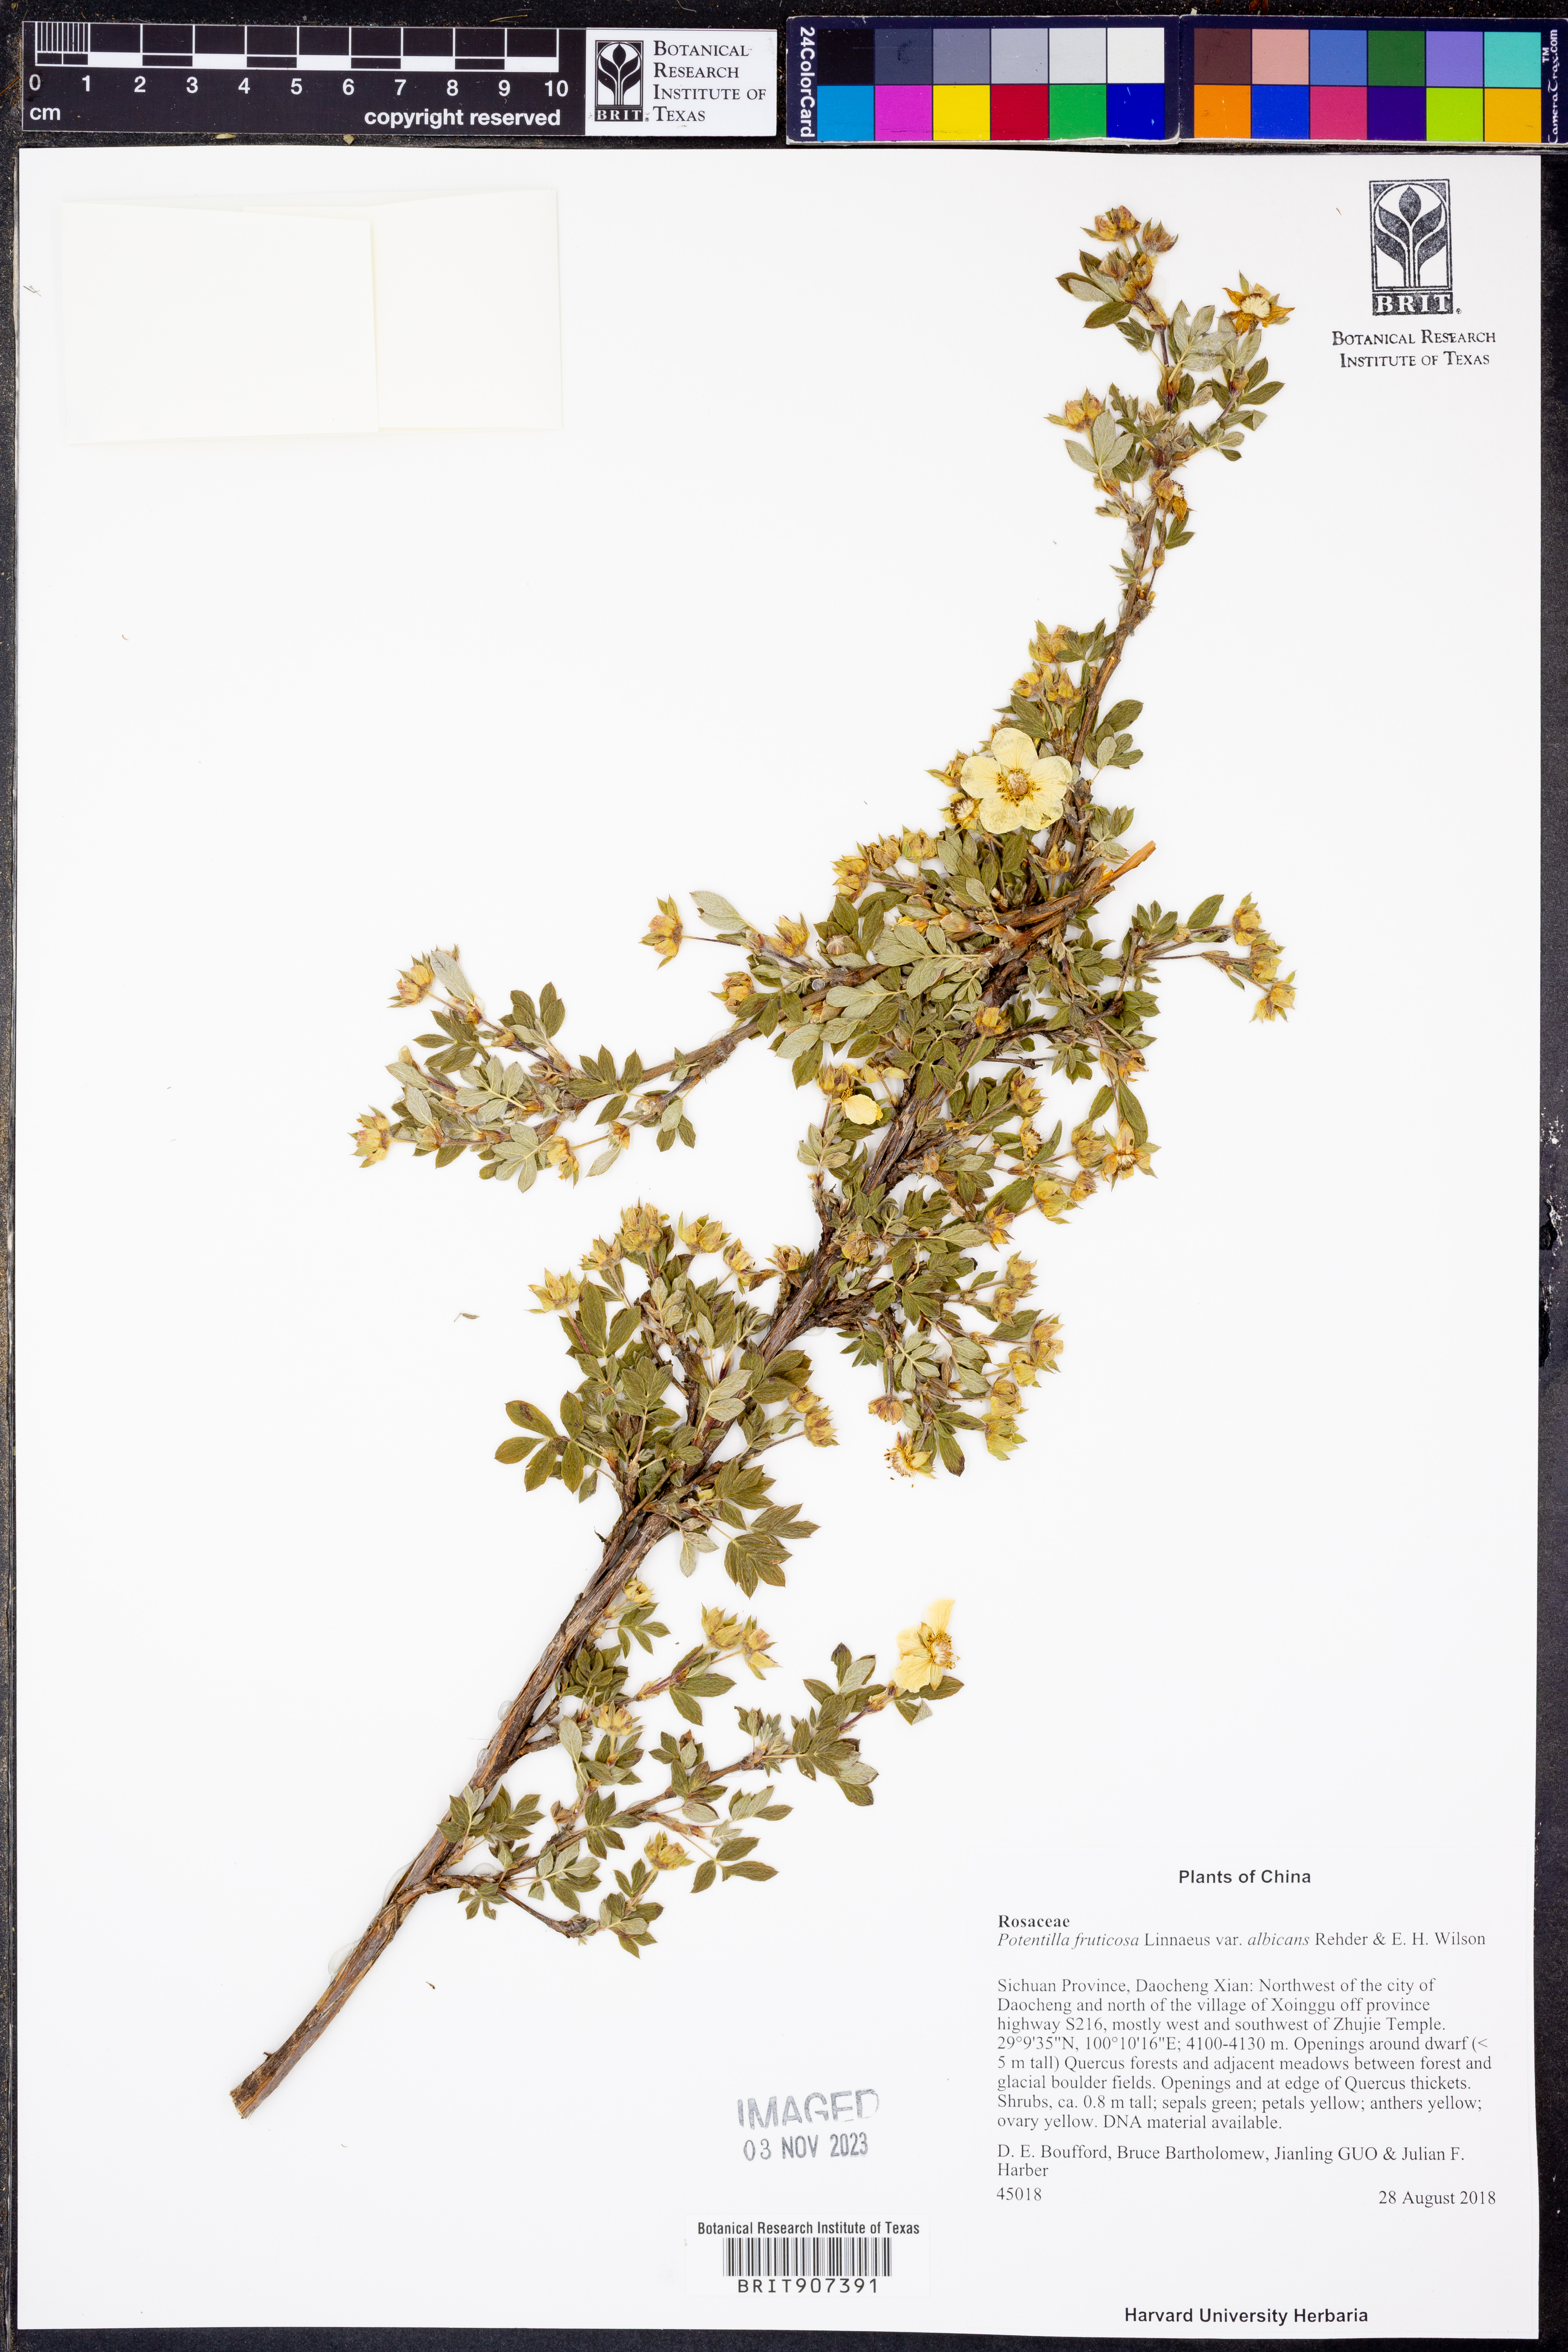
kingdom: Plantae
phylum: Tracheophyta
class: Magnoliopsida
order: Rosales
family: Rosaceae
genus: Dasiphora
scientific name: Dasiphora fruticosa
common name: Shrubby cinquefoil
